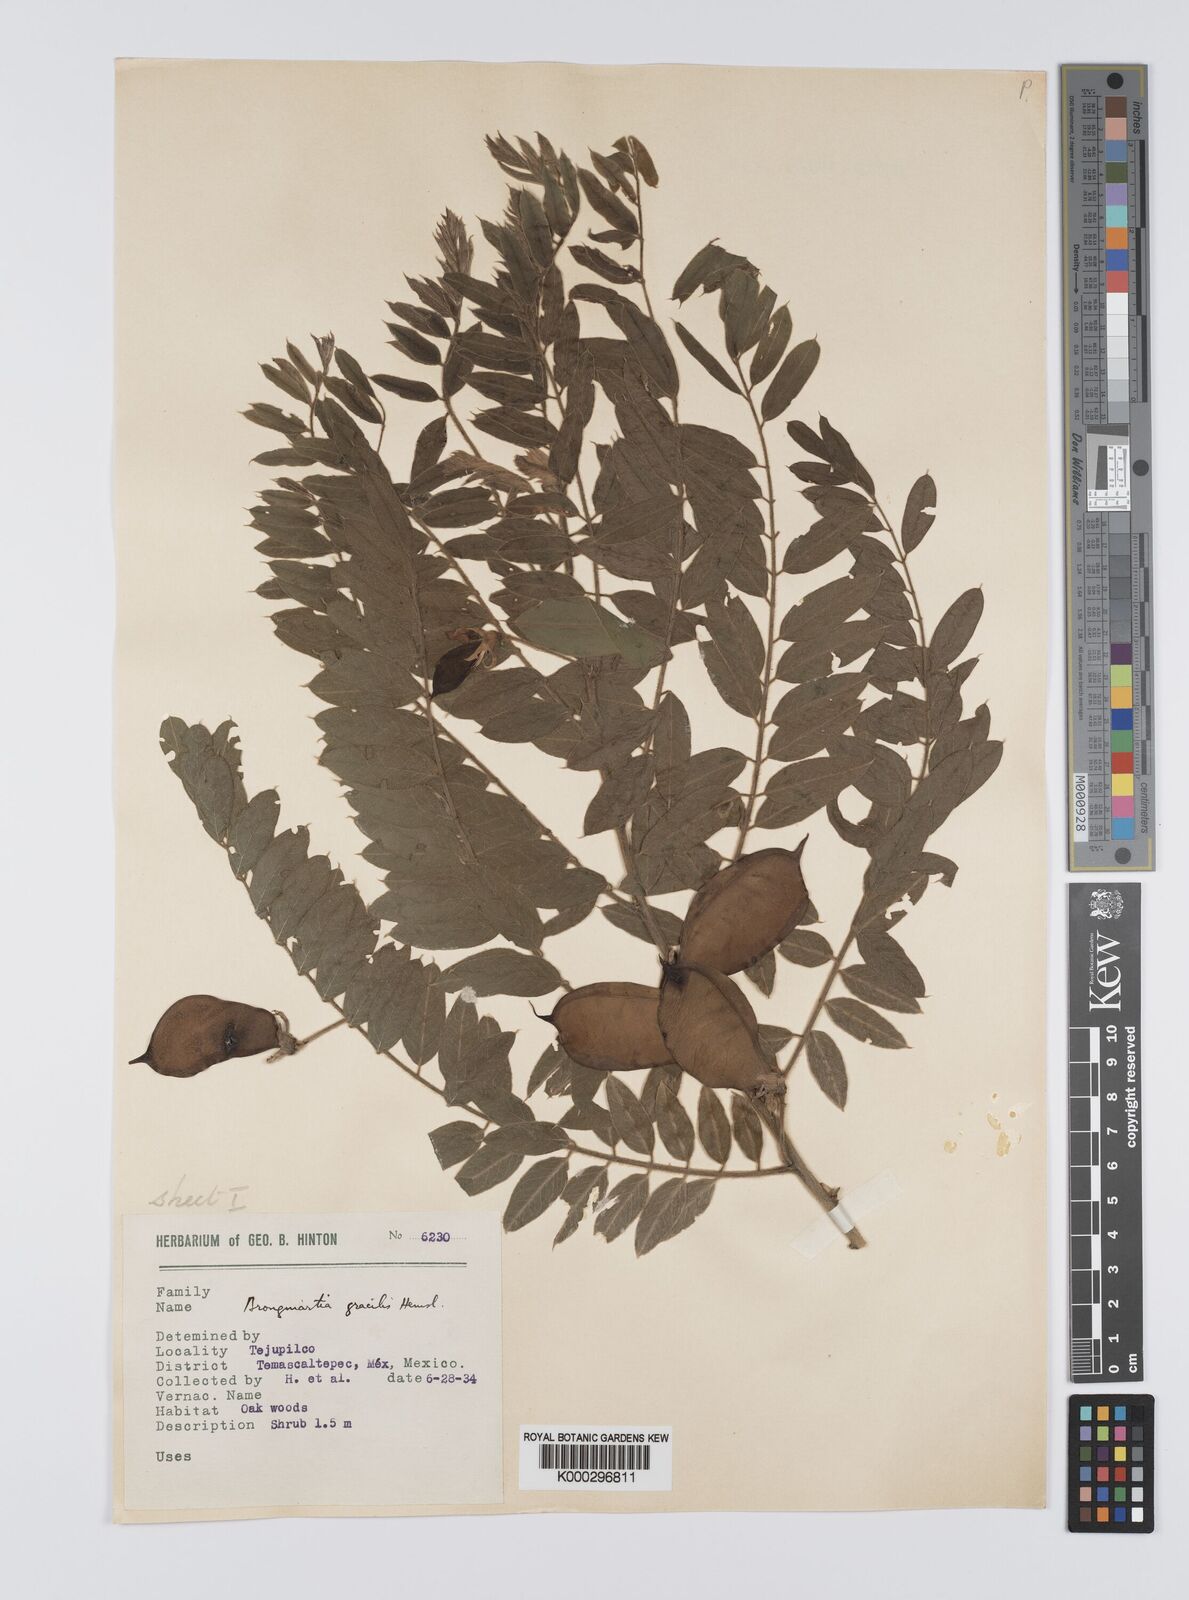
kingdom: Plantae
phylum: Tracheophyta
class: Magnoliopsida
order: Fabales
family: Fabaceae
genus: Brongniartia
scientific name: Brongniartia sericea
